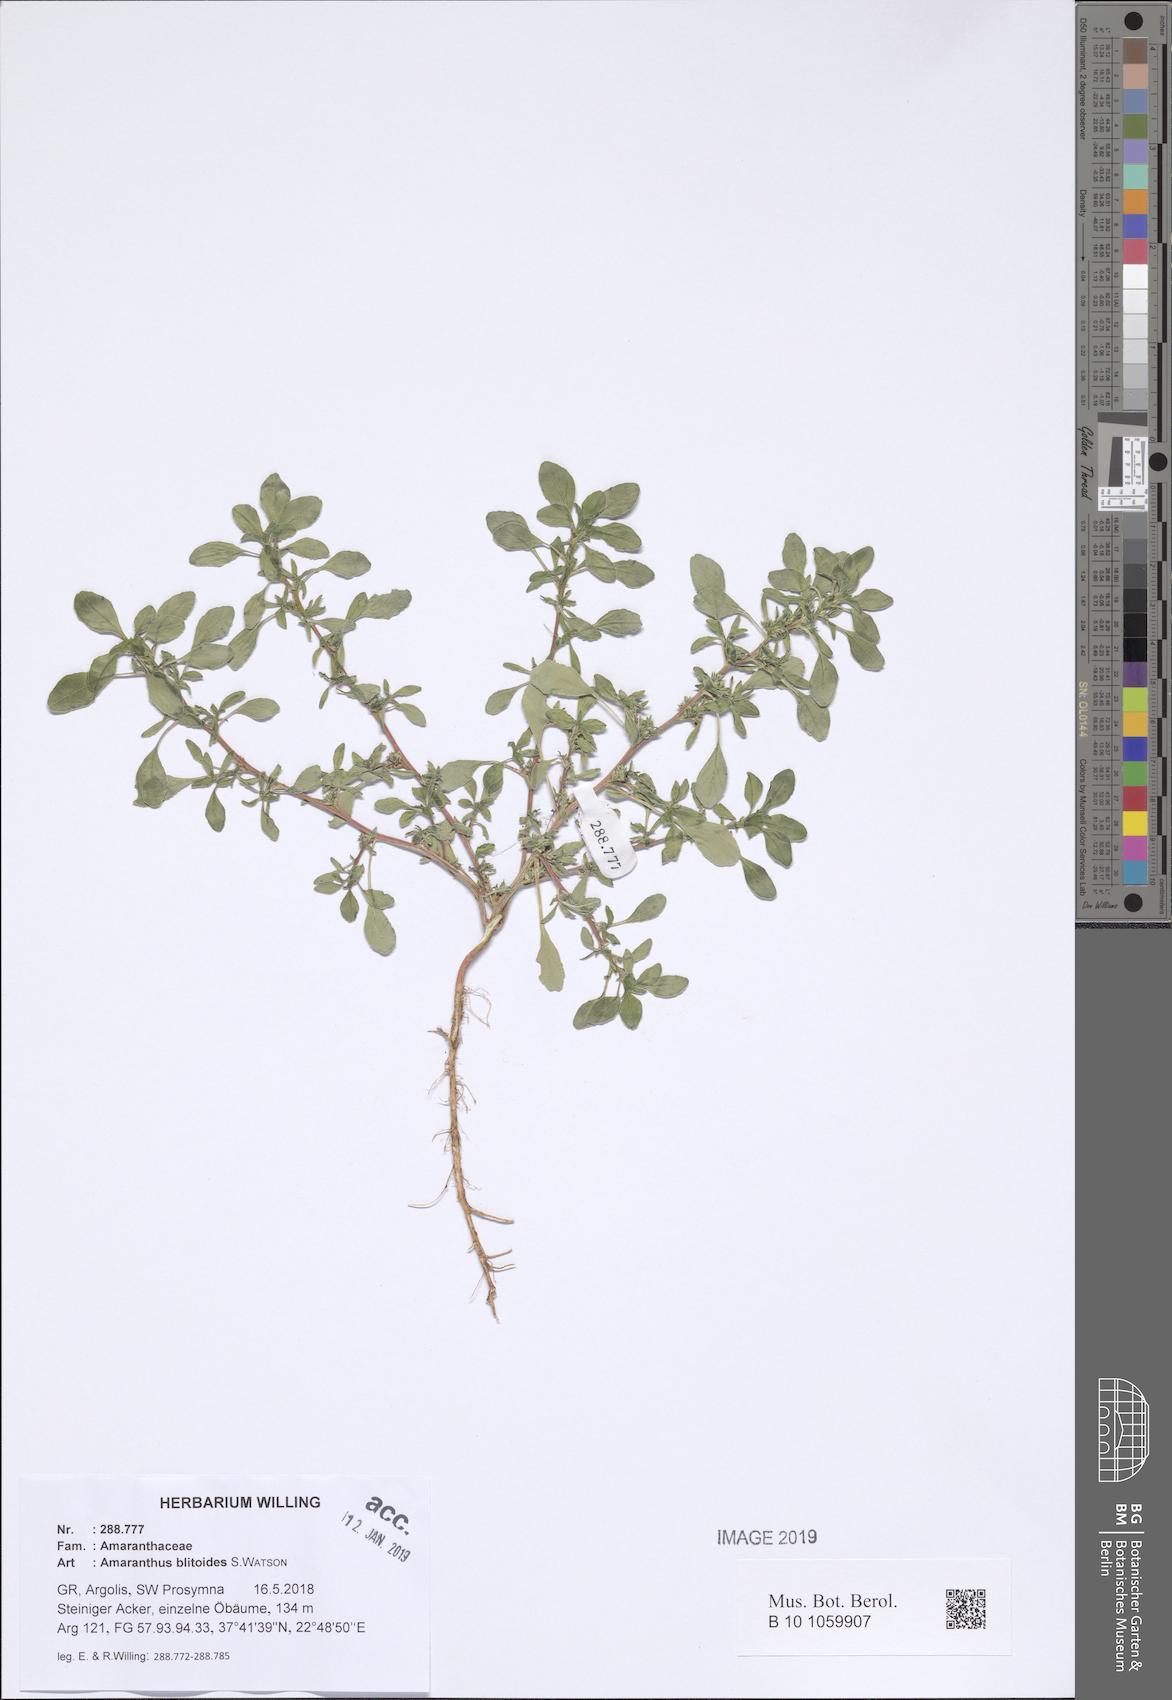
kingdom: Plantae
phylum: Tracheophyta
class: Magnoliopsida
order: Caryophyllales
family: Amaranthaceae
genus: Amaranthus
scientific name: Amaranthus blitoides
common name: Prostrate pigweed
